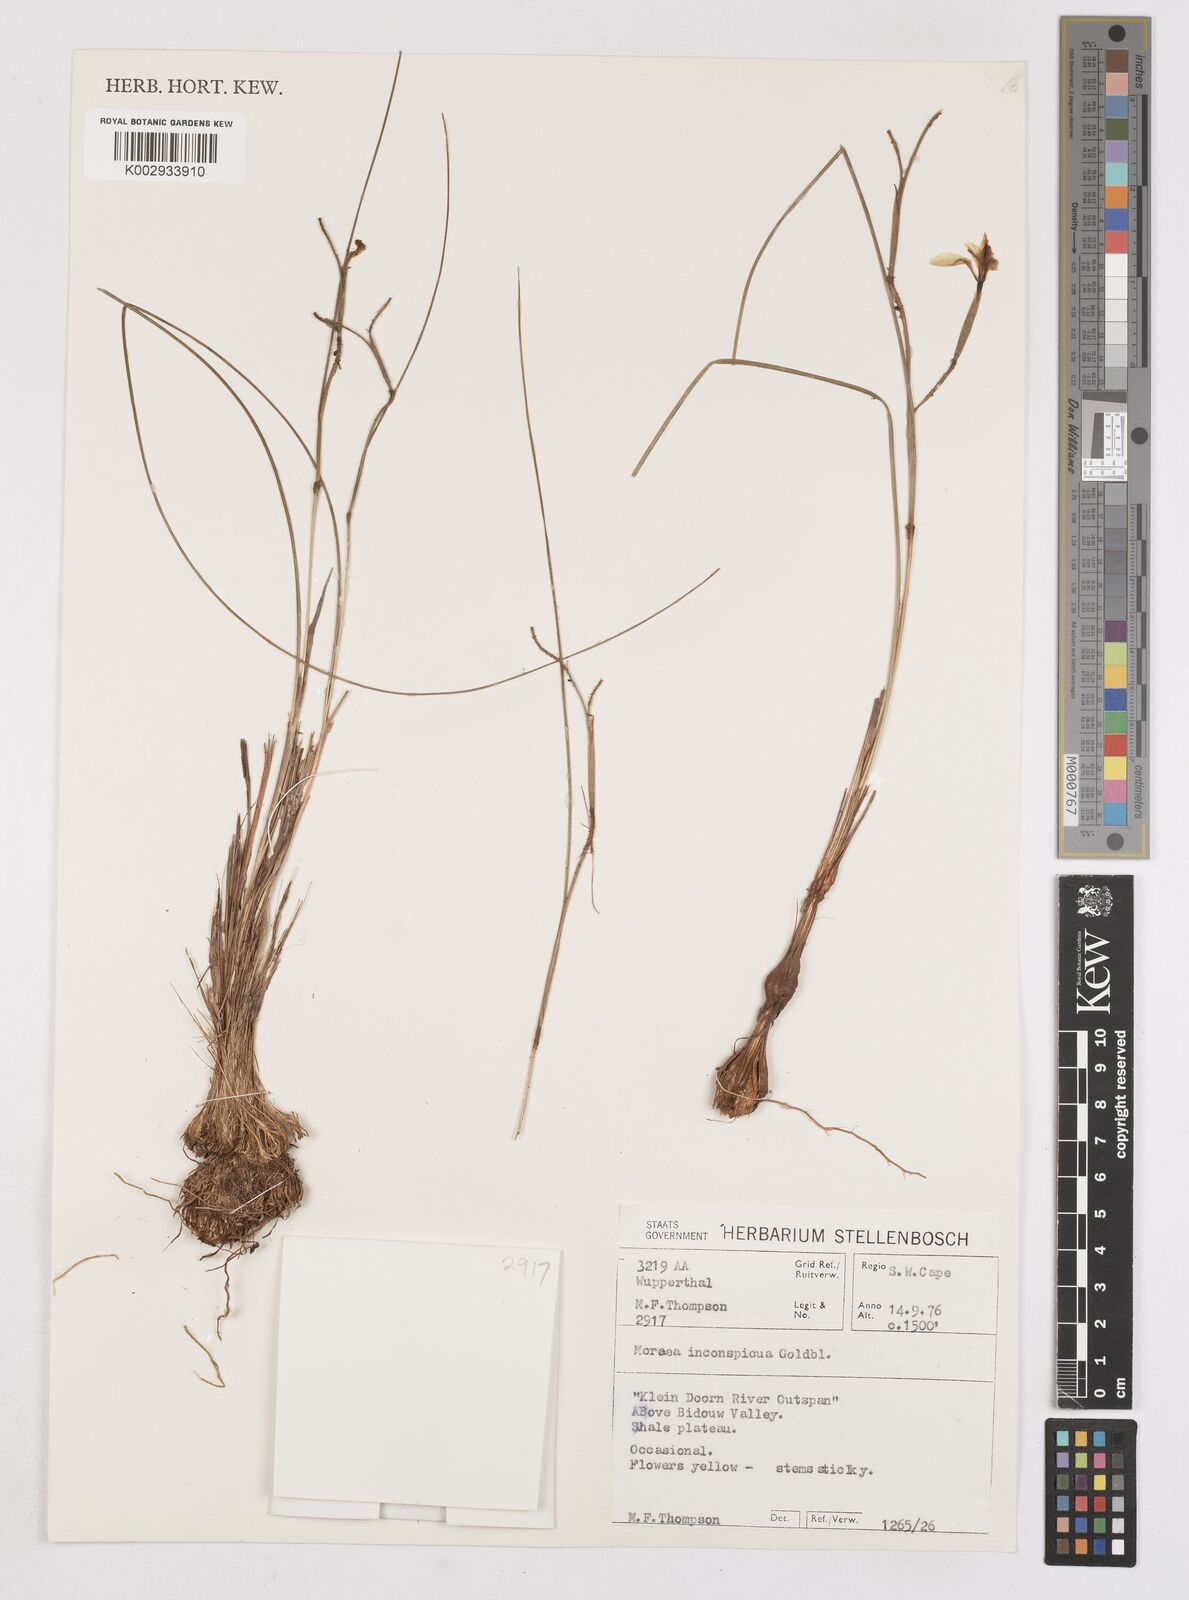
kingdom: Plantae
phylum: Tracheophyta
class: Liliopsida
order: Asparagales
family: Iridaceae
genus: Moraea
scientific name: Moraea inconspicua
